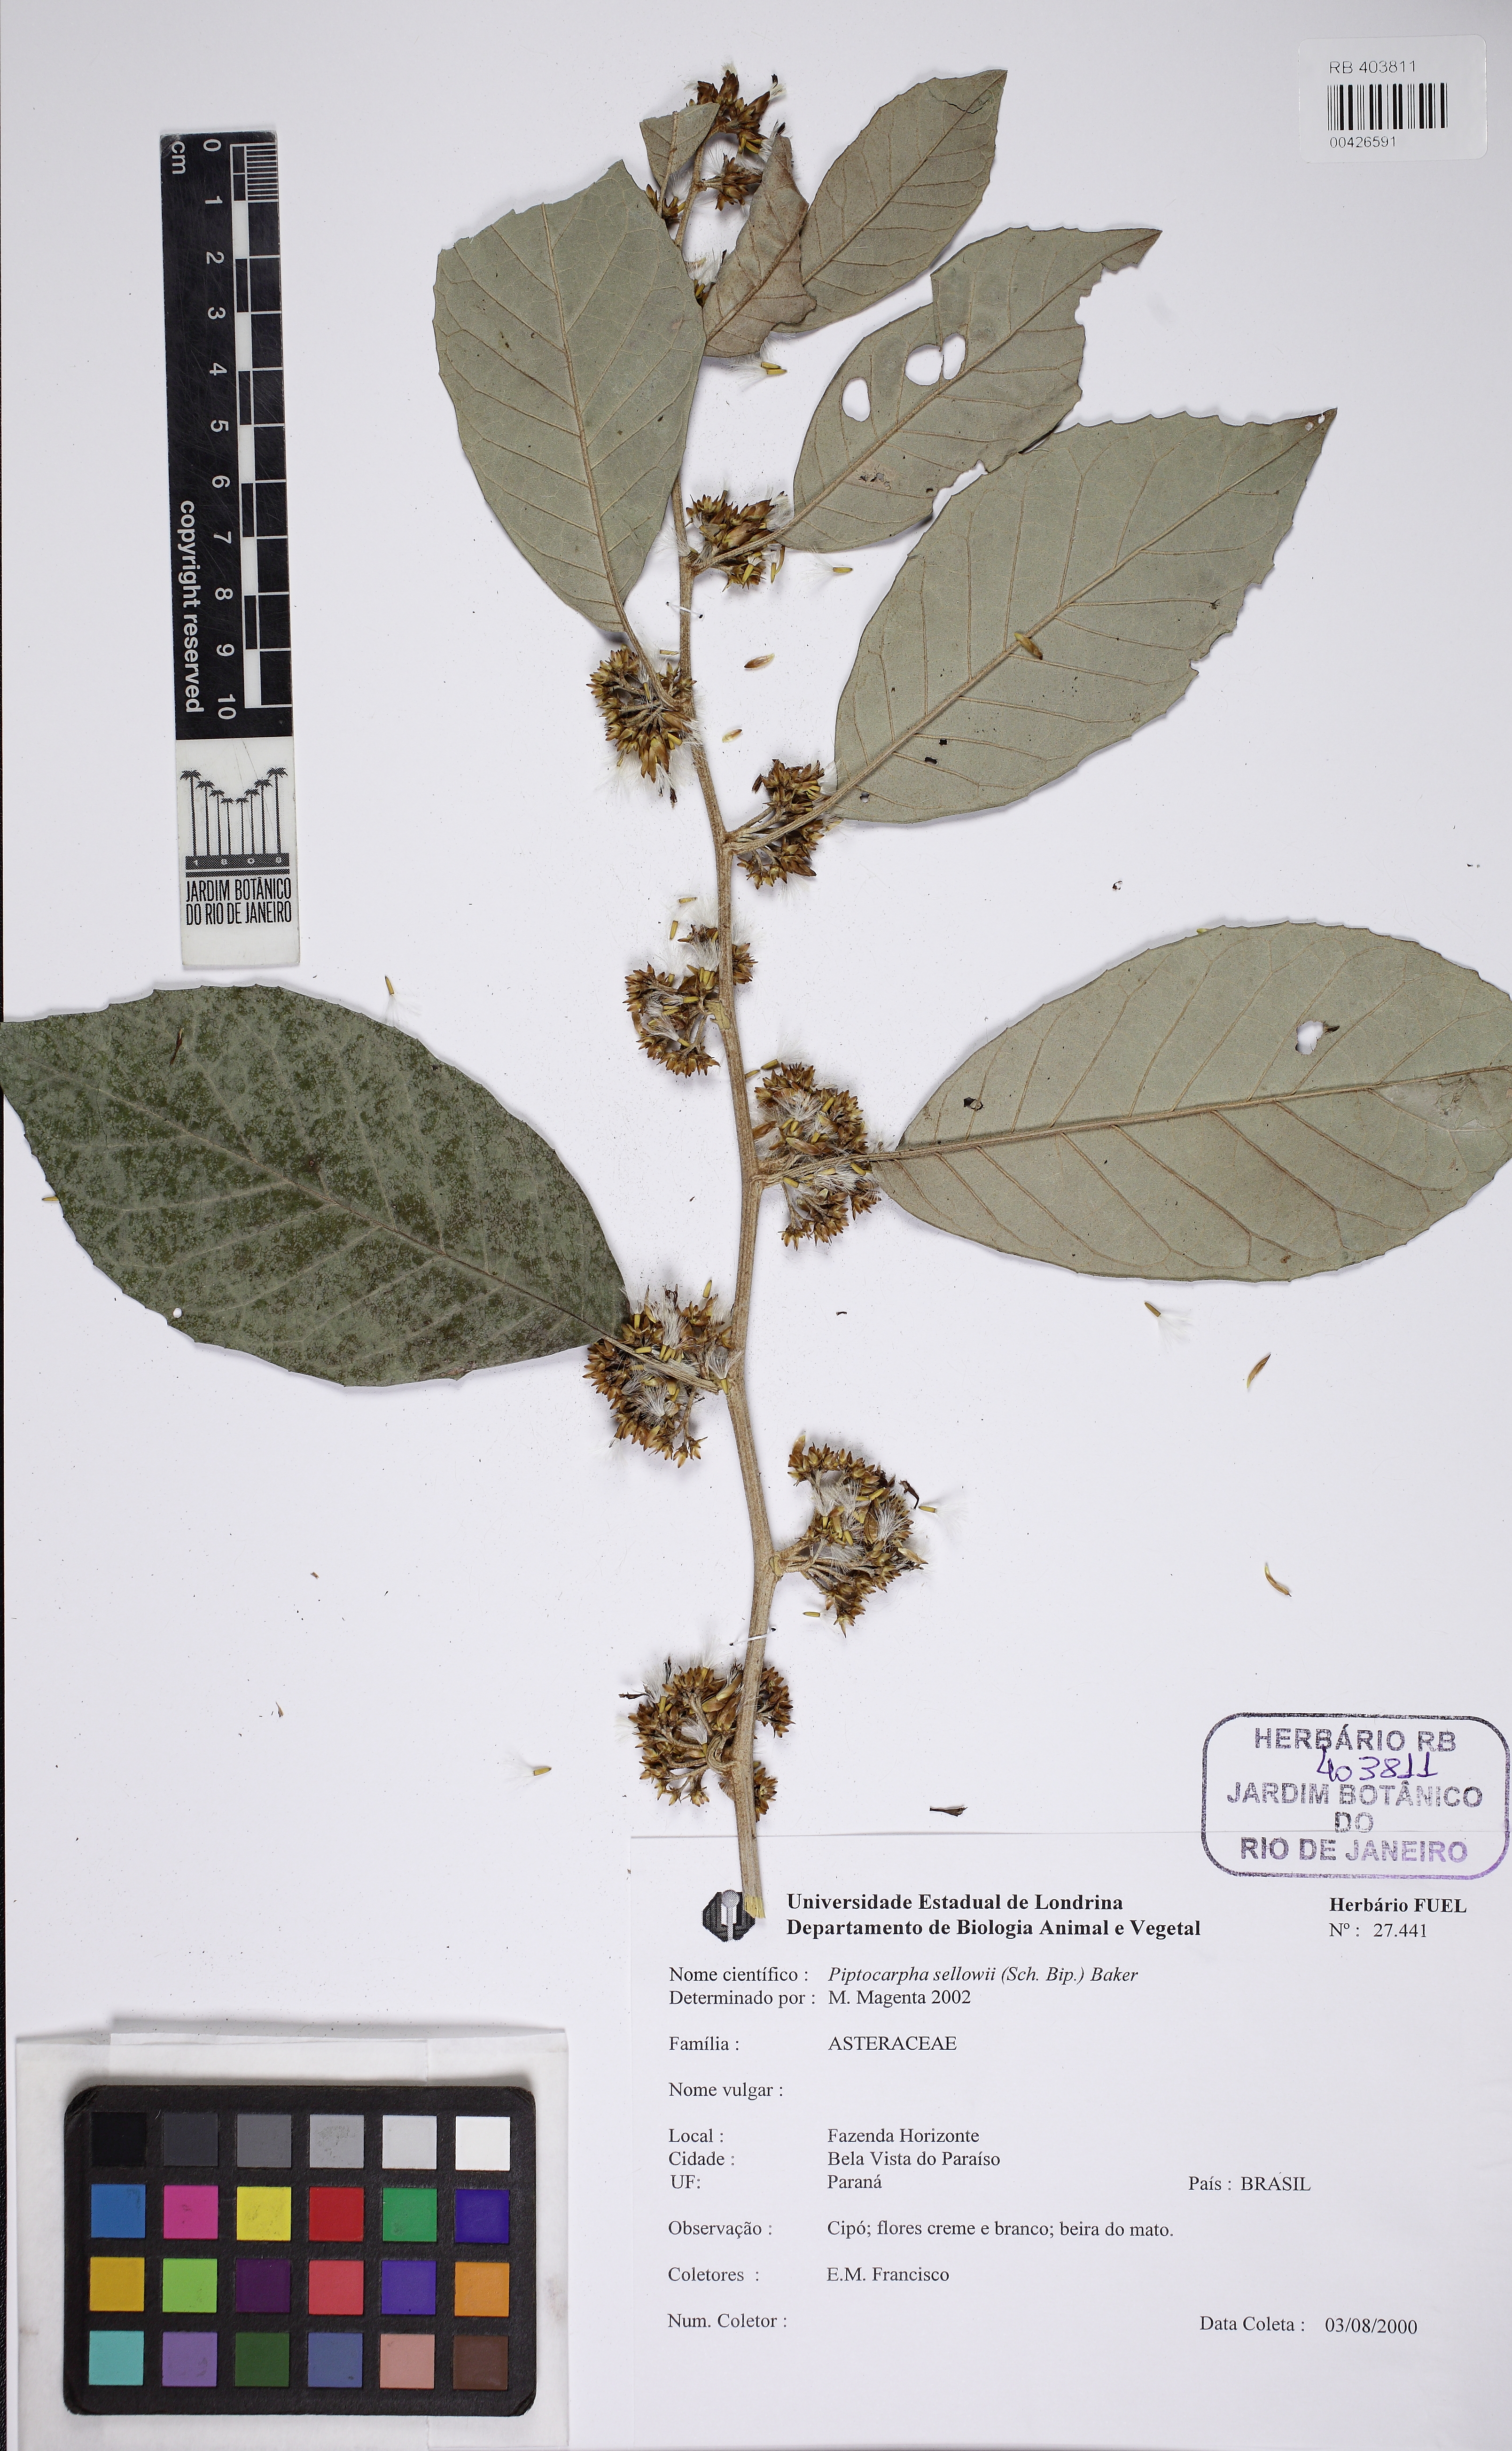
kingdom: Plantae
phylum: Tracheophyta
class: Magnoliopsida
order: Asterales
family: Asteraceae
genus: Piptocarpha
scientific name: Piptocarpha sellowii
